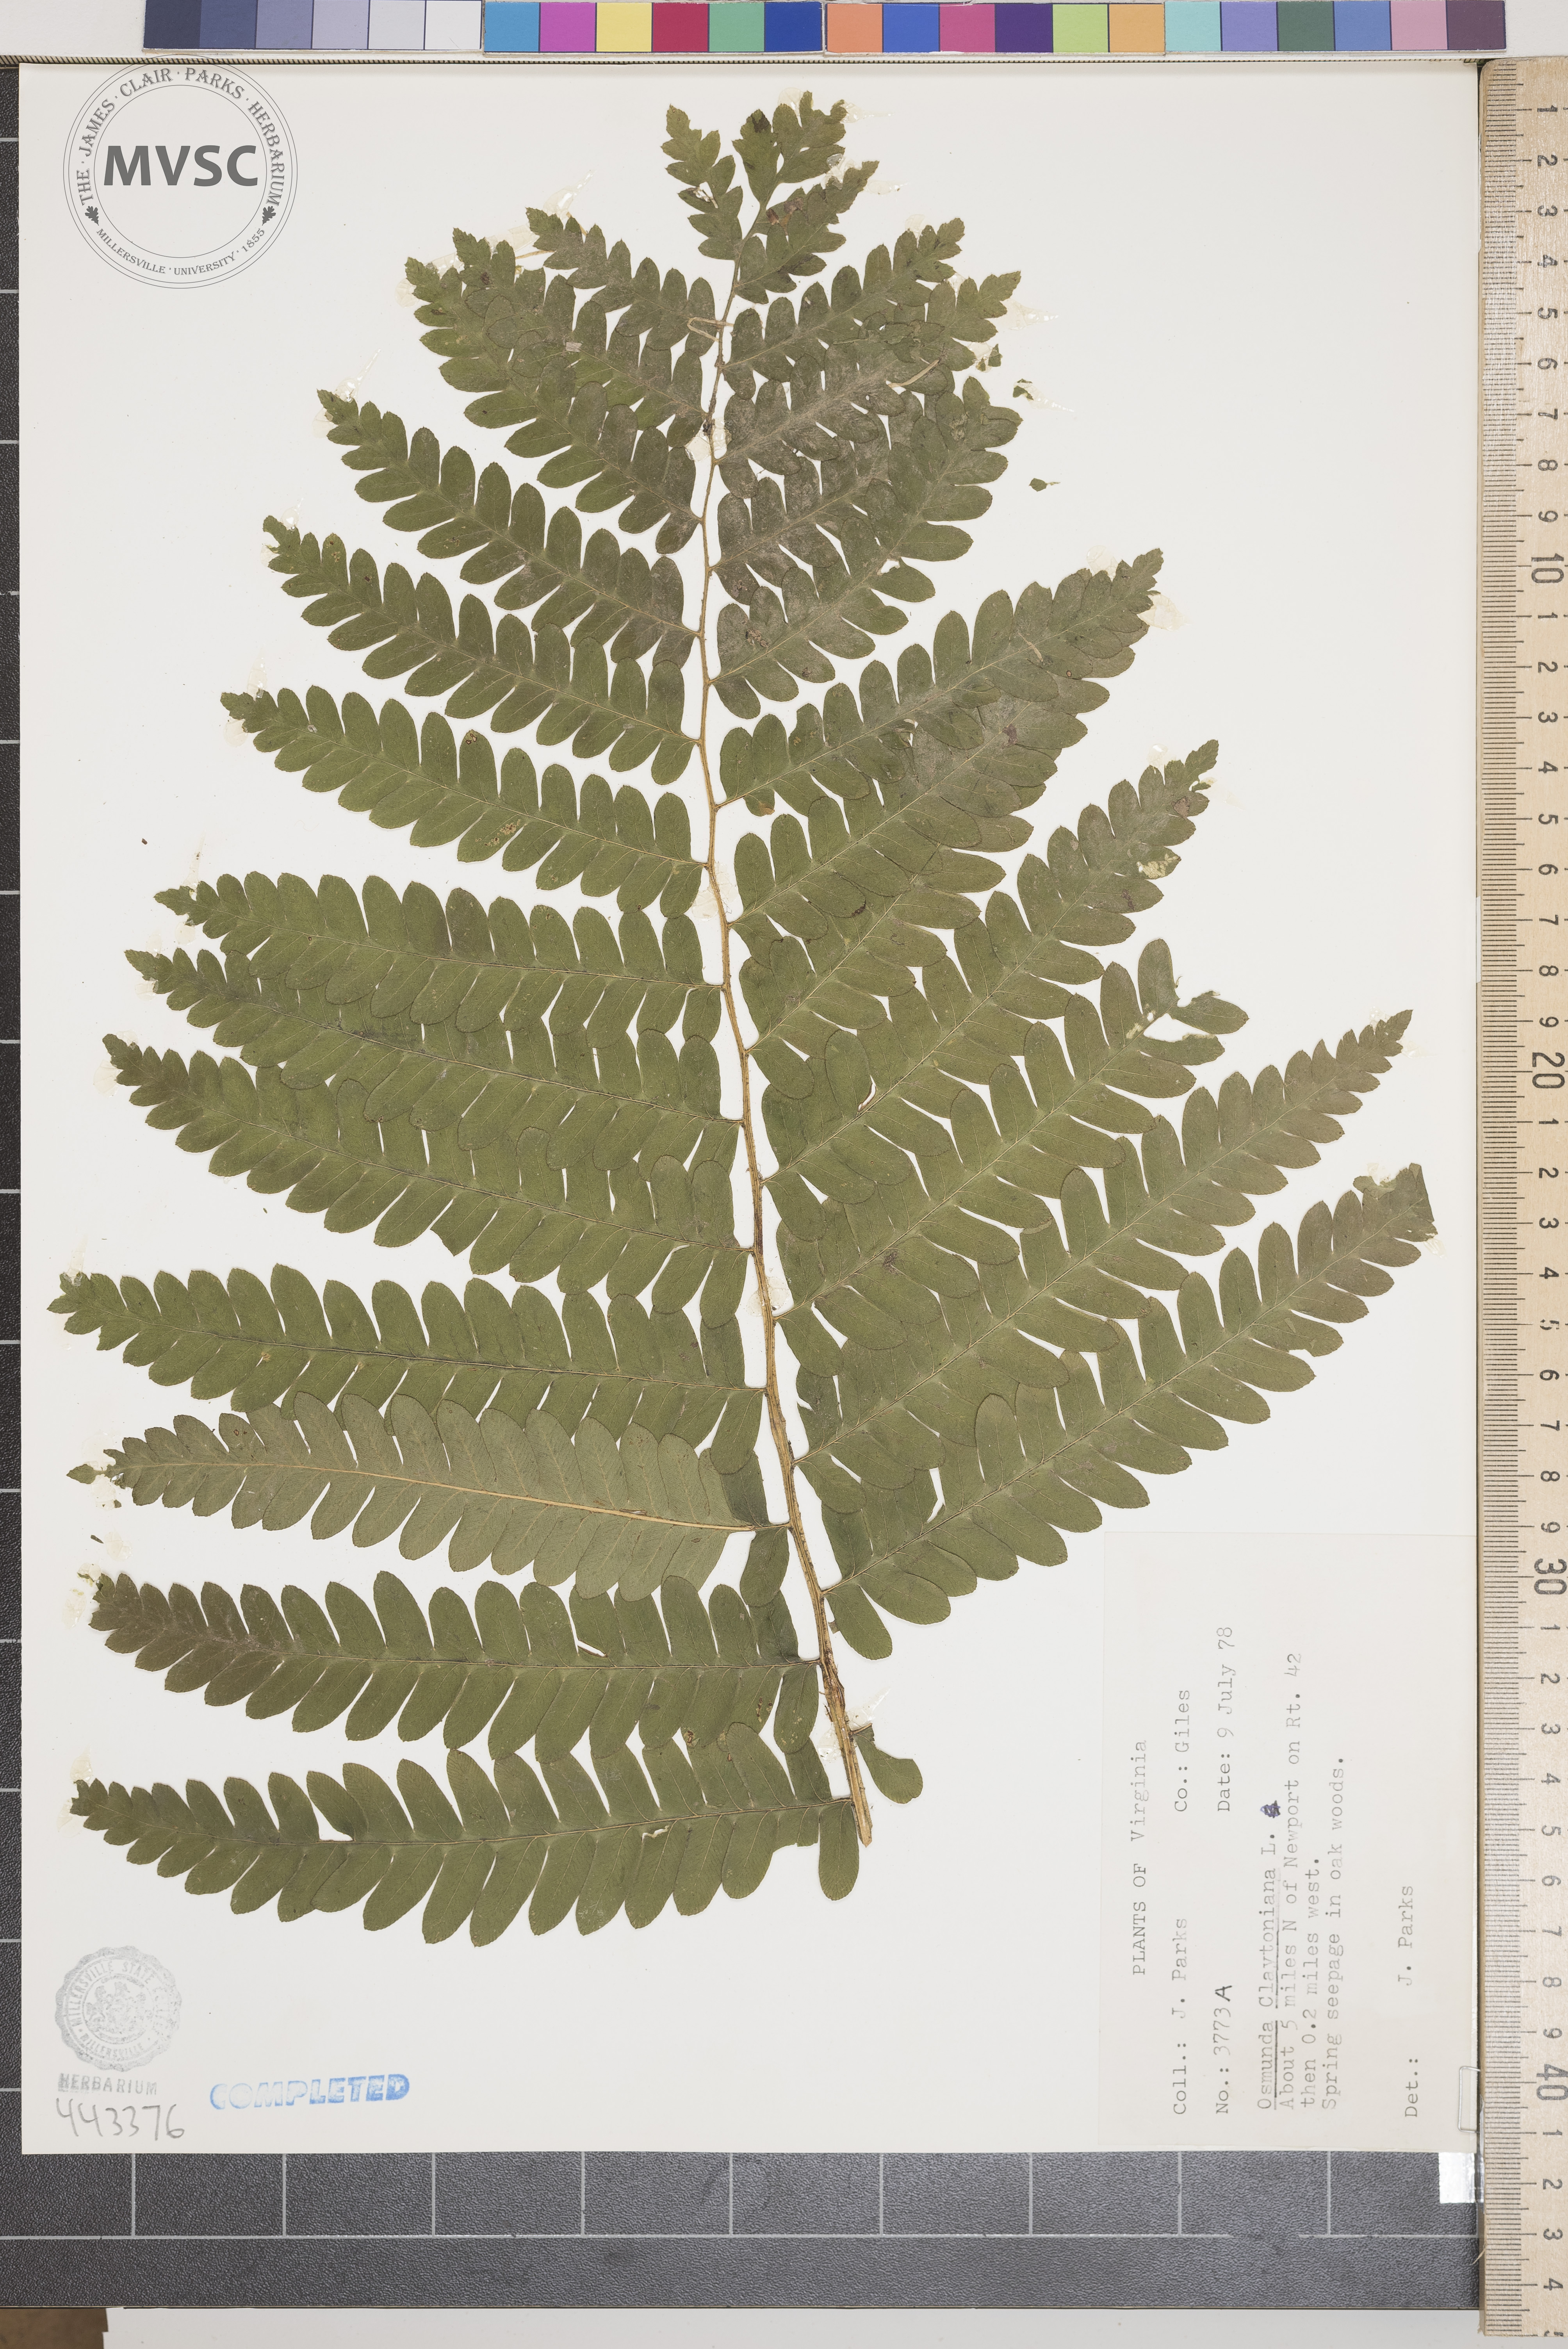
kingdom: Plantae
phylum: Tracheophyta
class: Polypodiopsida
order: Osmundales
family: Osmundaceae
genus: Claytosmunda
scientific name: Claytosmunda claytoniana
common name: Clayton's fern
